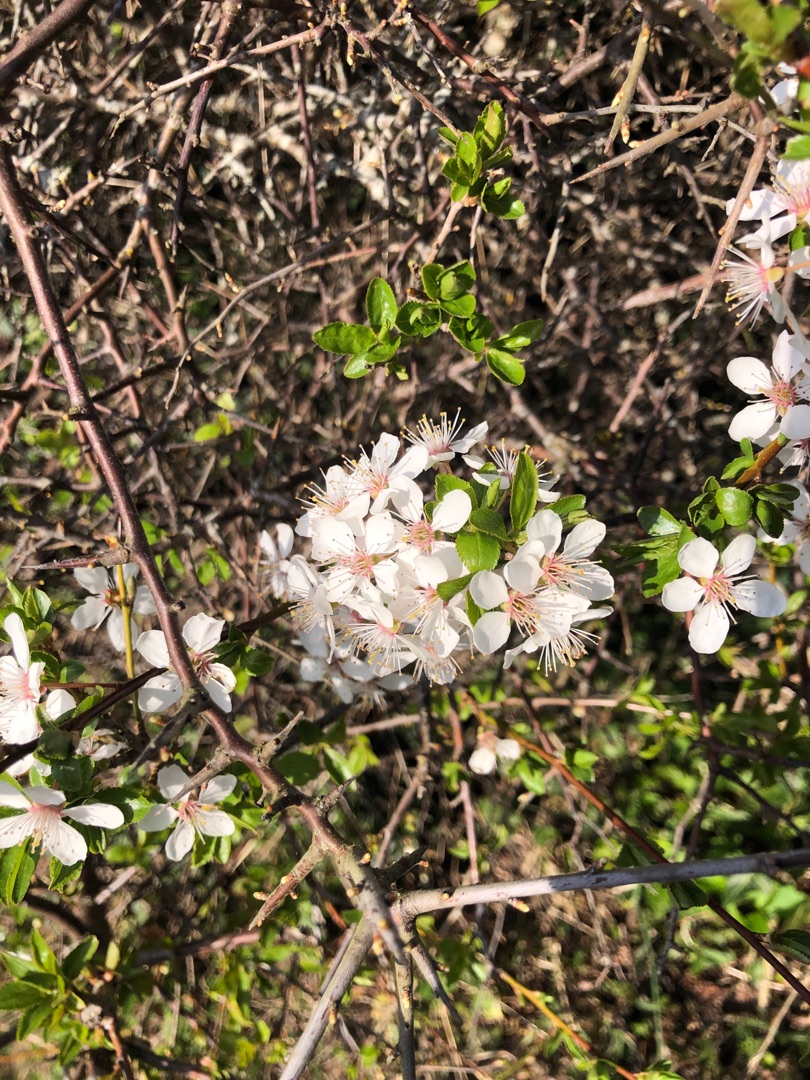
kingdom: Plantae
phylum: Tracheophyta
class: Magnoliopsida
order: Rosales
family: Rosaceae
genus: Prunus
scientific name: Prunus cerasifera
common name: Mirabel
